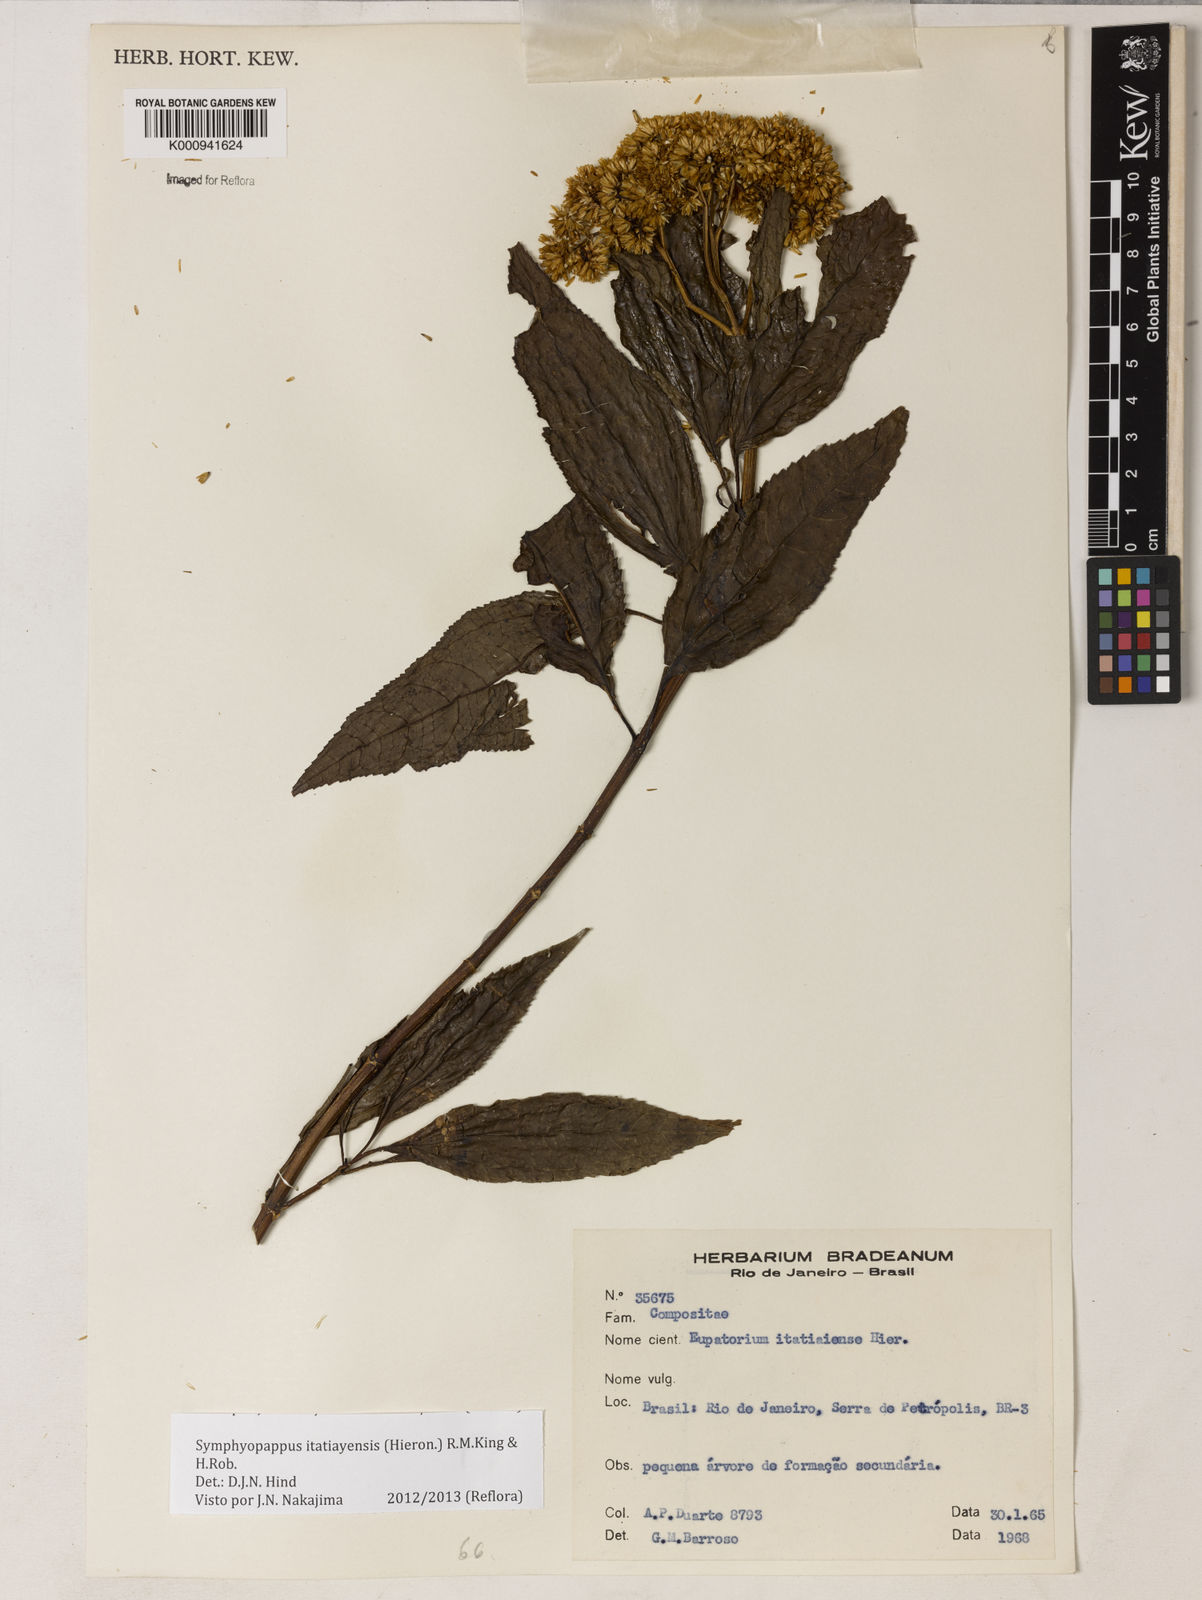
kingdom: Plantae
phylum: Tracheophyta
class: Magnoliopsida
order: Asterales
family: Asteraceae
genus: Symphyopappus
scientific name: Symphyopappus itatiayensis
